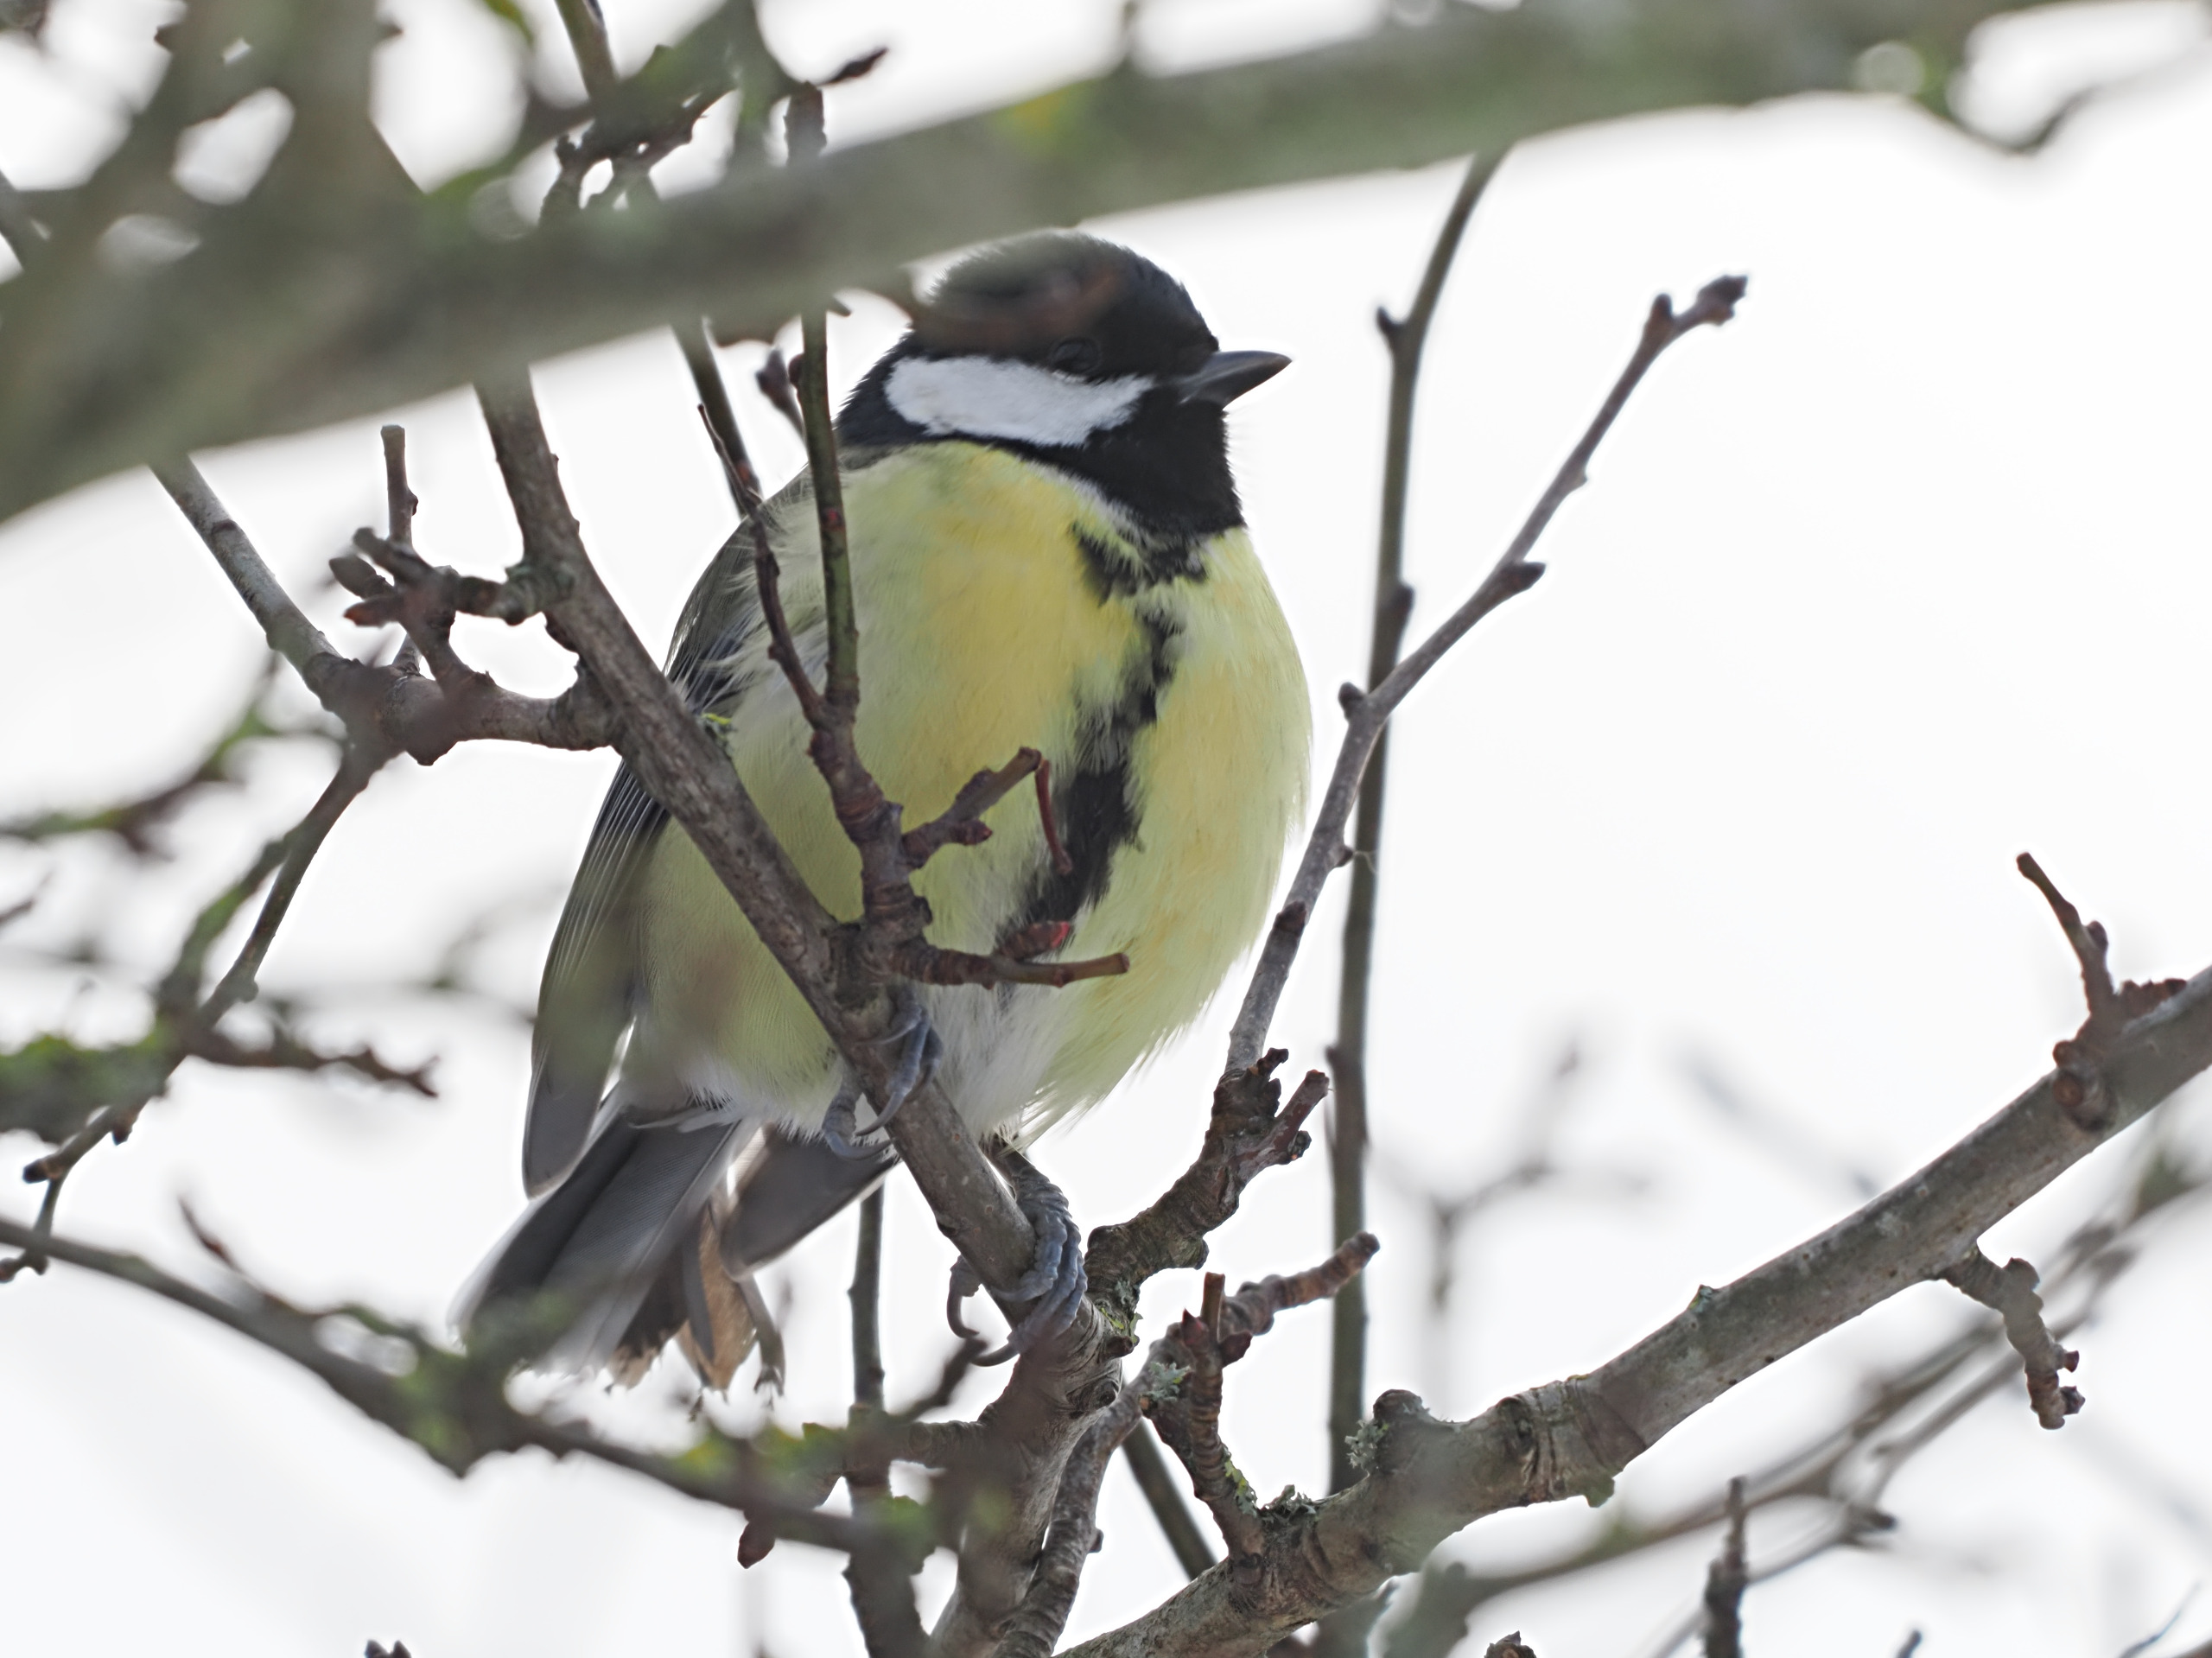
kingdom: Animalia
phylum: Chordata
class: Aves
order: Passeriformes
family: Paridae
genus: Parus
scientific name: Parus major
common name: Musvit
